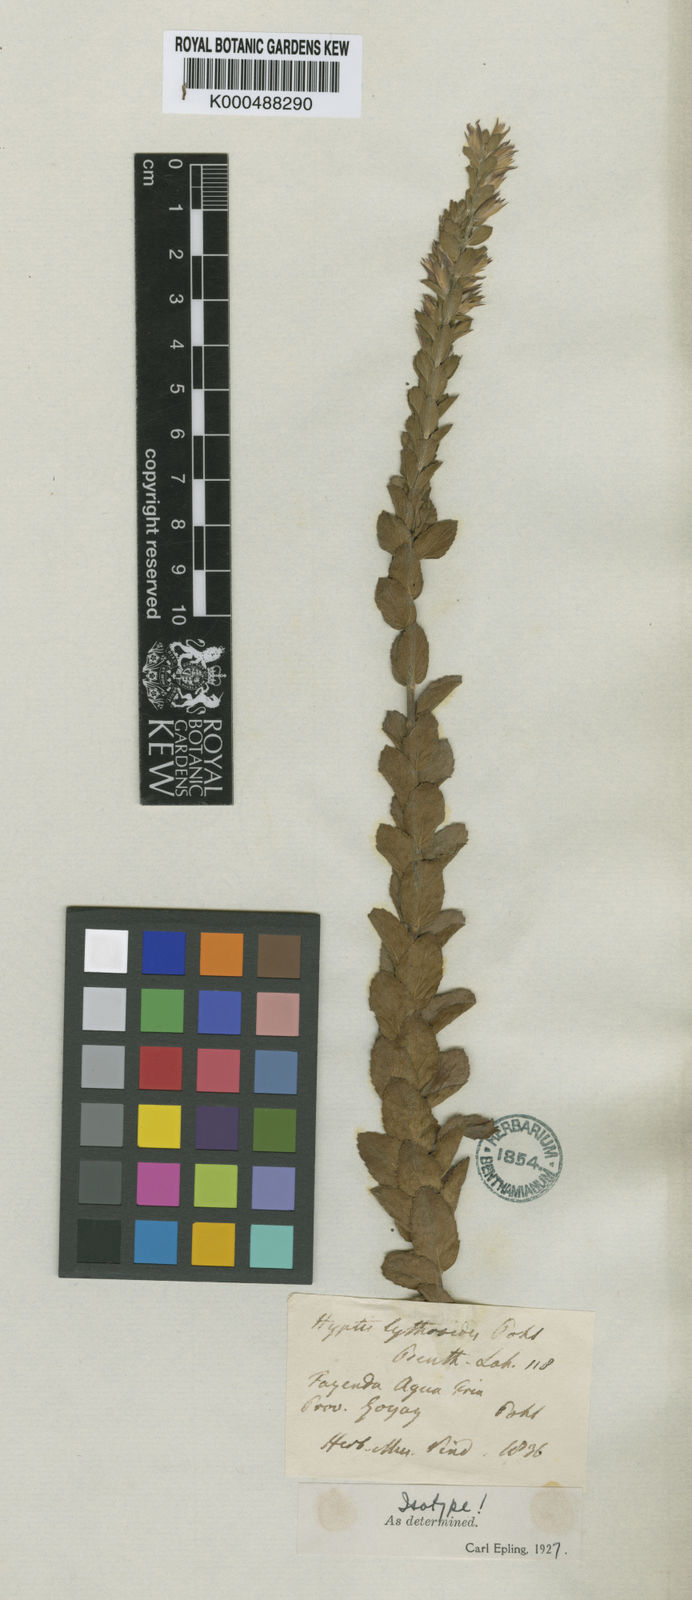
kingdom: Plantae
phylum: Tracheophyta
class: Magnoliopsida
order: Lamiales
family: Lamiaceae
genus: Oocephalus
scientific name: Oocephalus lythroides
